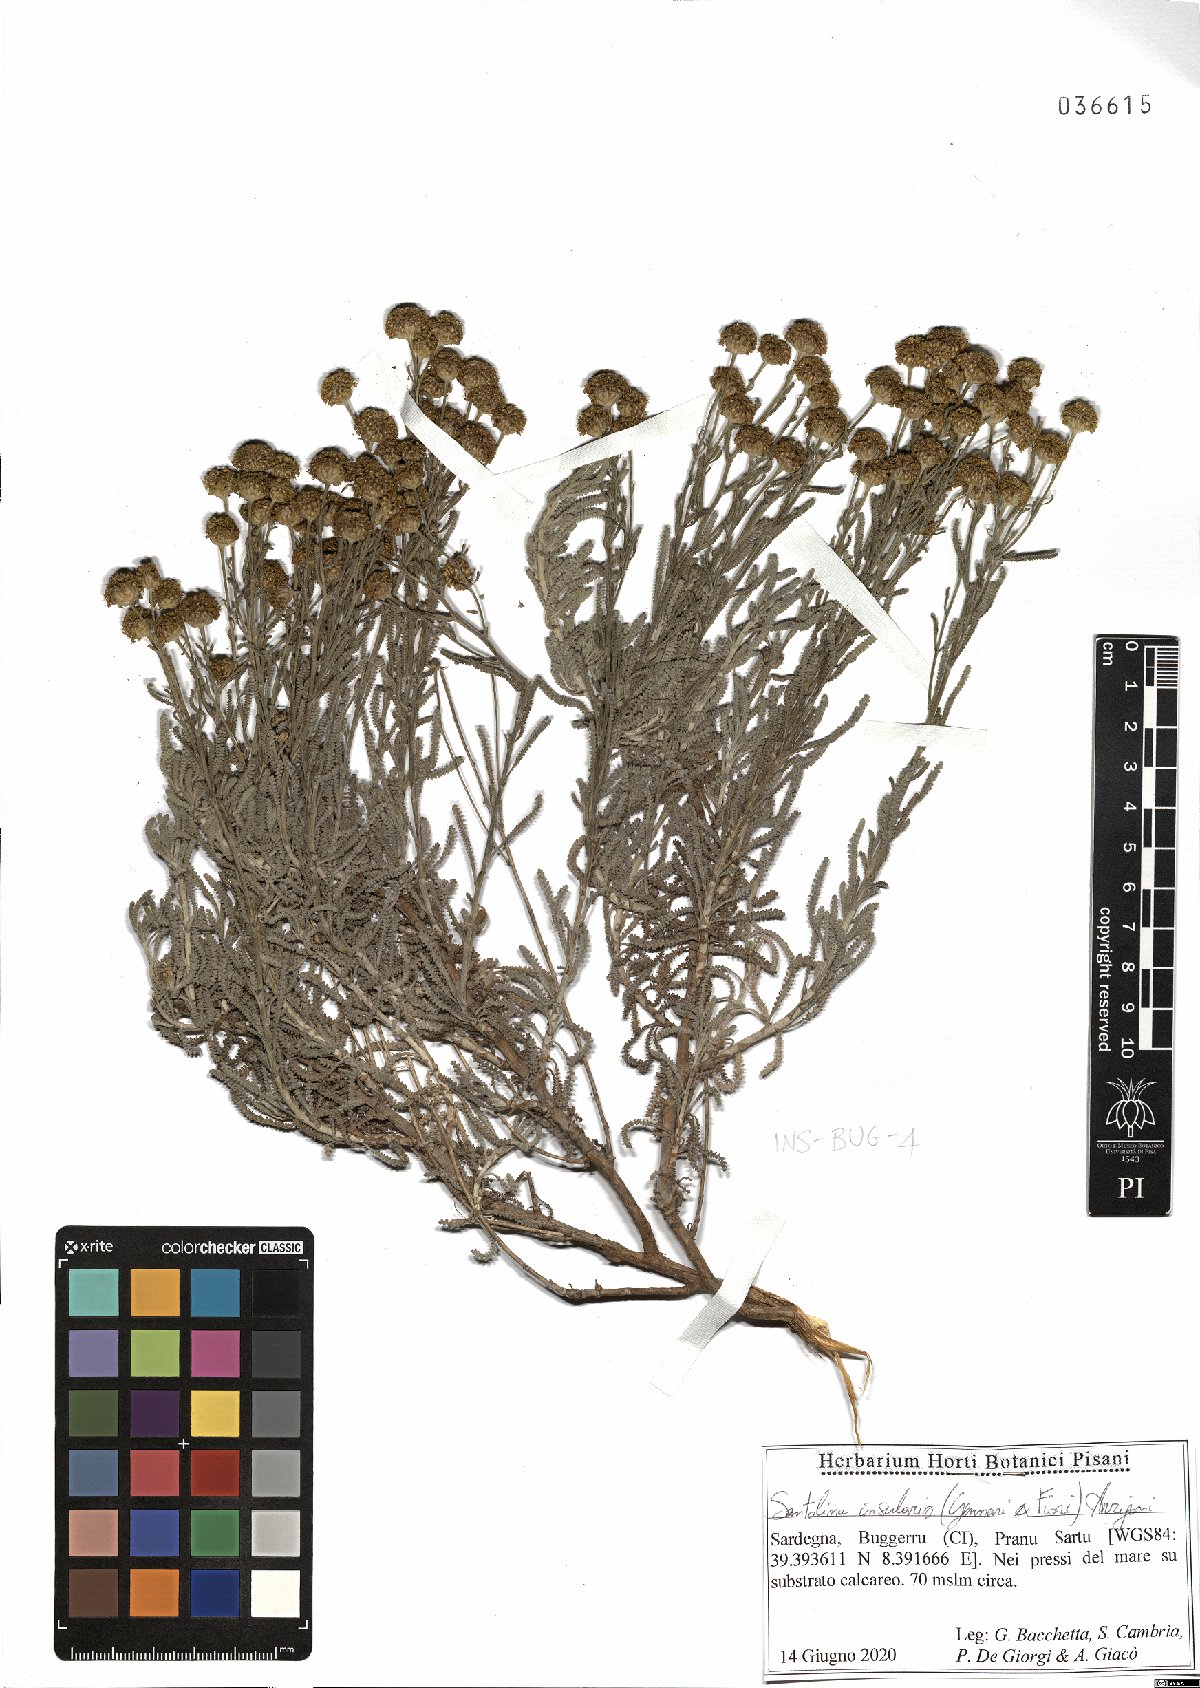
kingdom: Plantae
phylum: Tracheophyta
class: Magnoliopsida
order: Asterales
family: Asteraceae
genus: Santolina
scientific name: Santolina insularis
